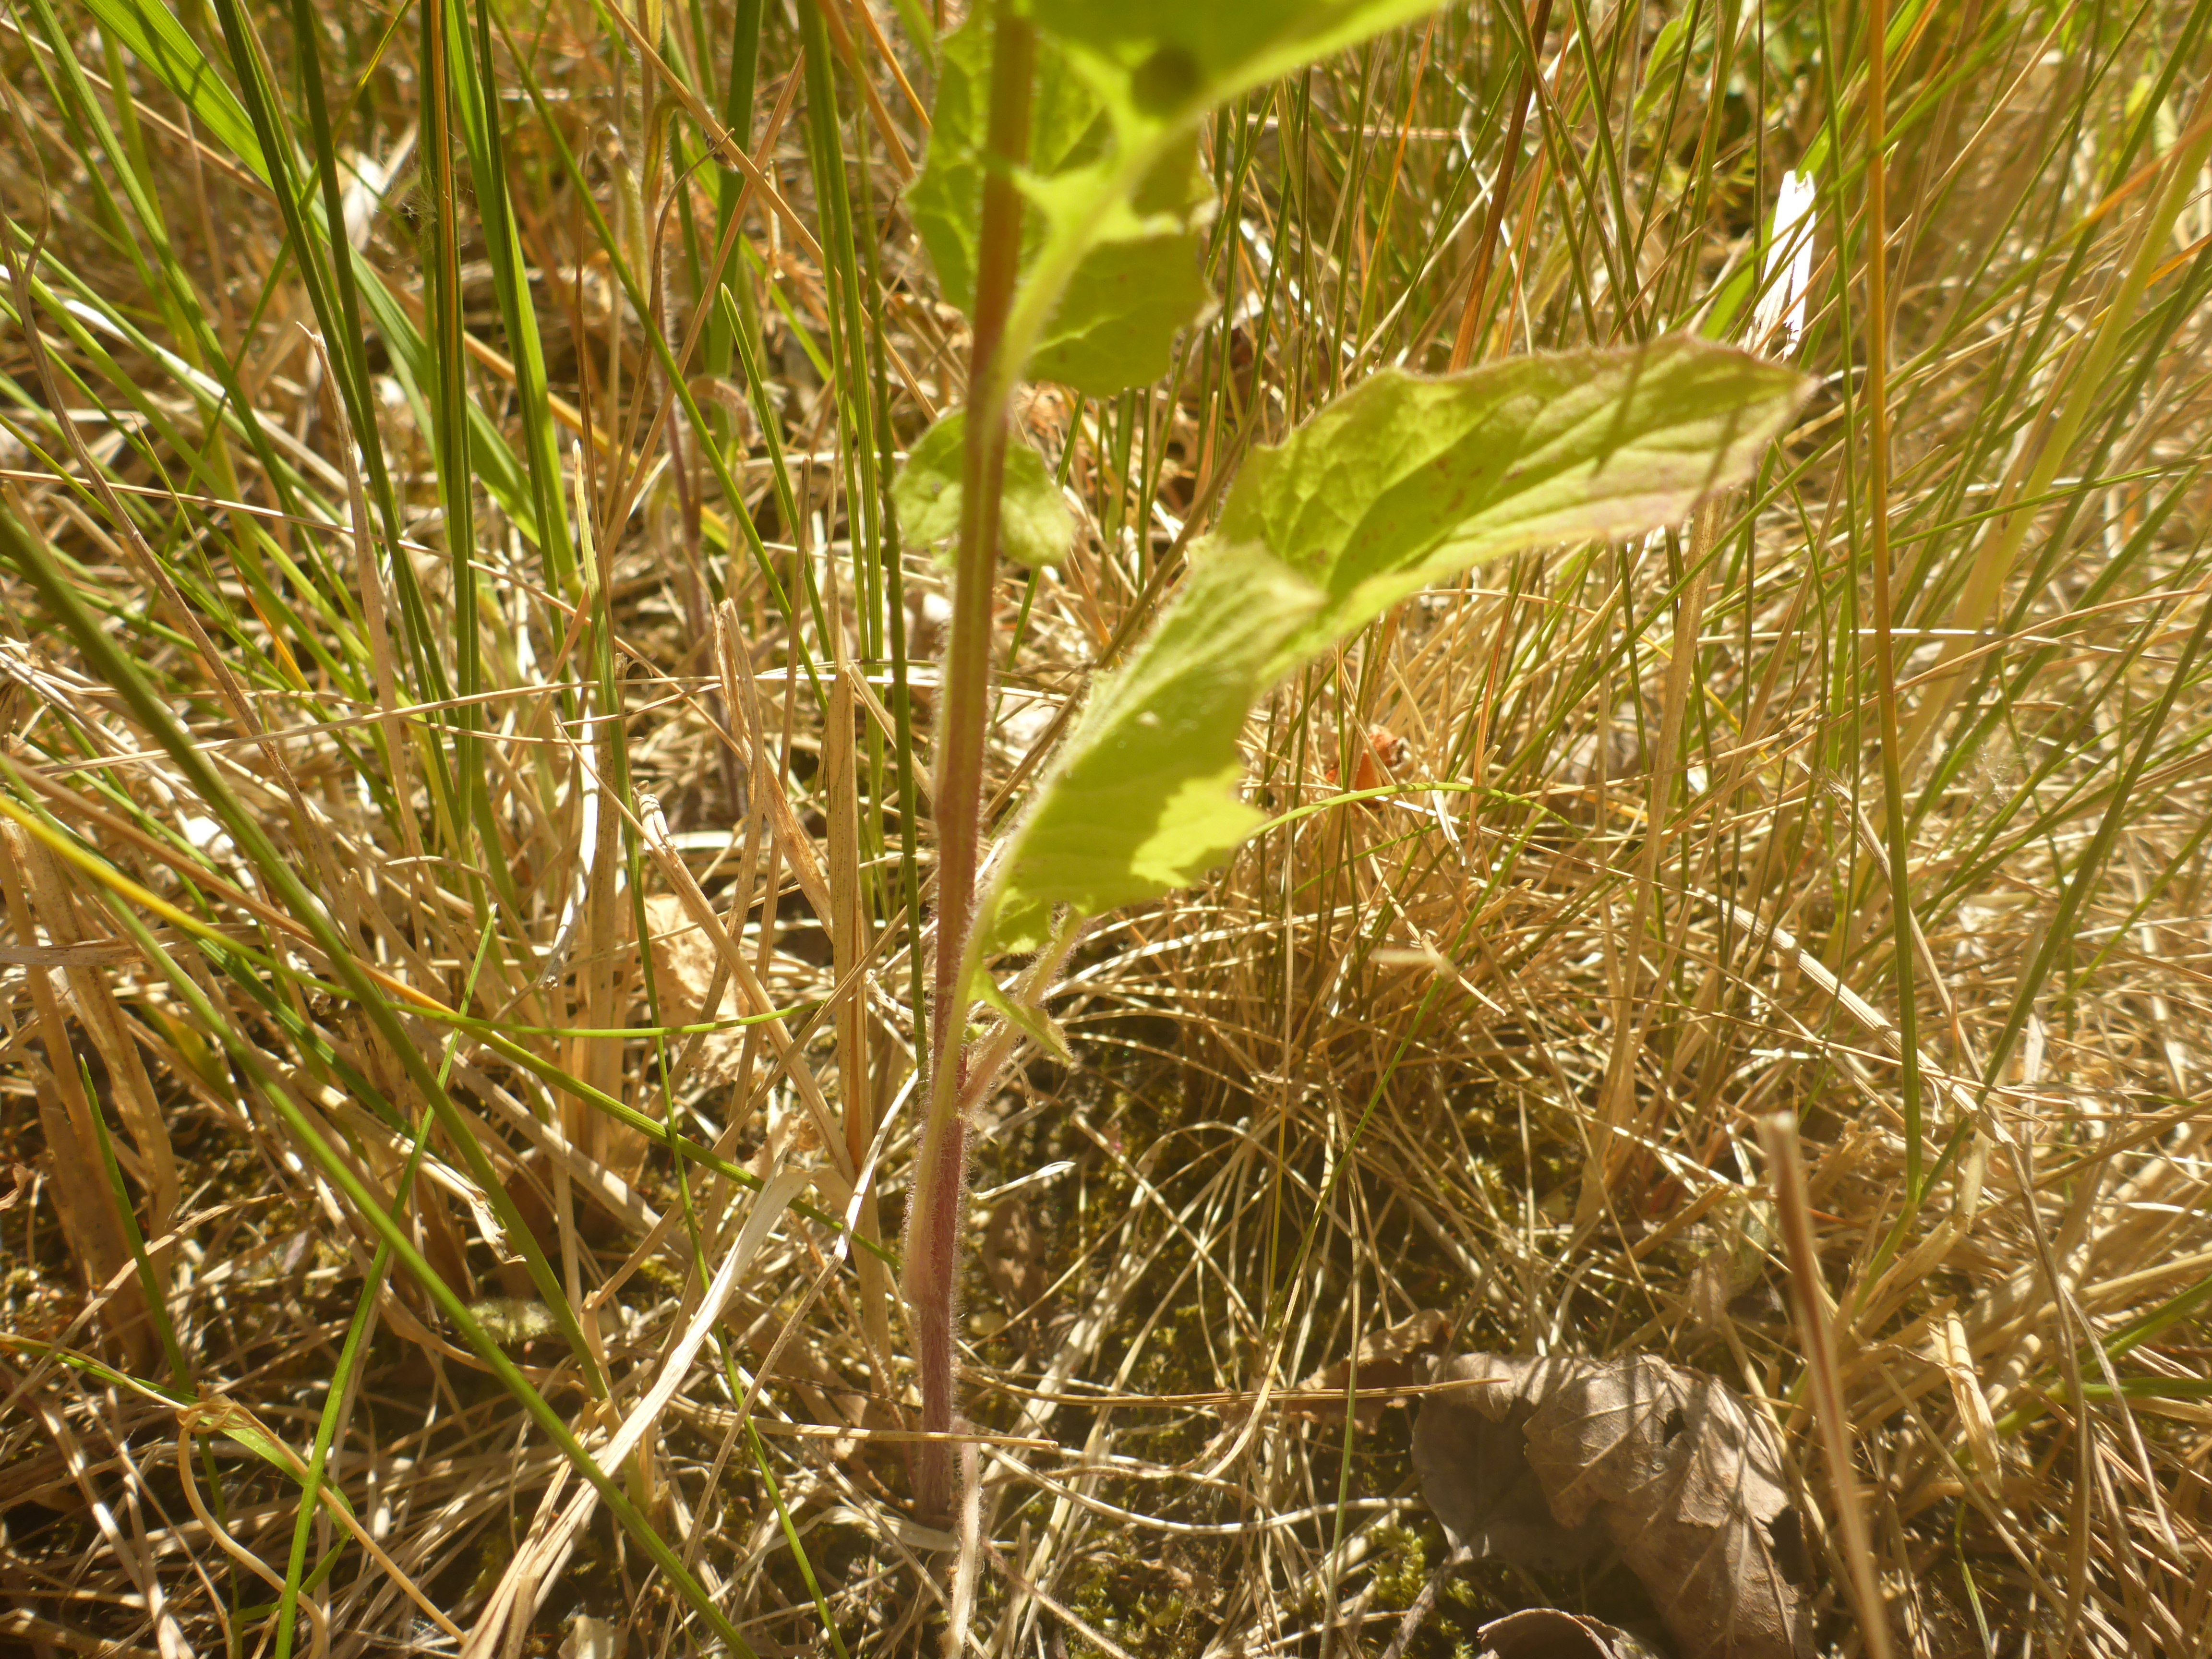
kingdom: Plantae
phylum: Tracheophyta
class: Magnoliopsida
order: Asterales
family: Asteraceae
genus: Lapsana
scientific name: Lapsana communis
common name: Haremad
